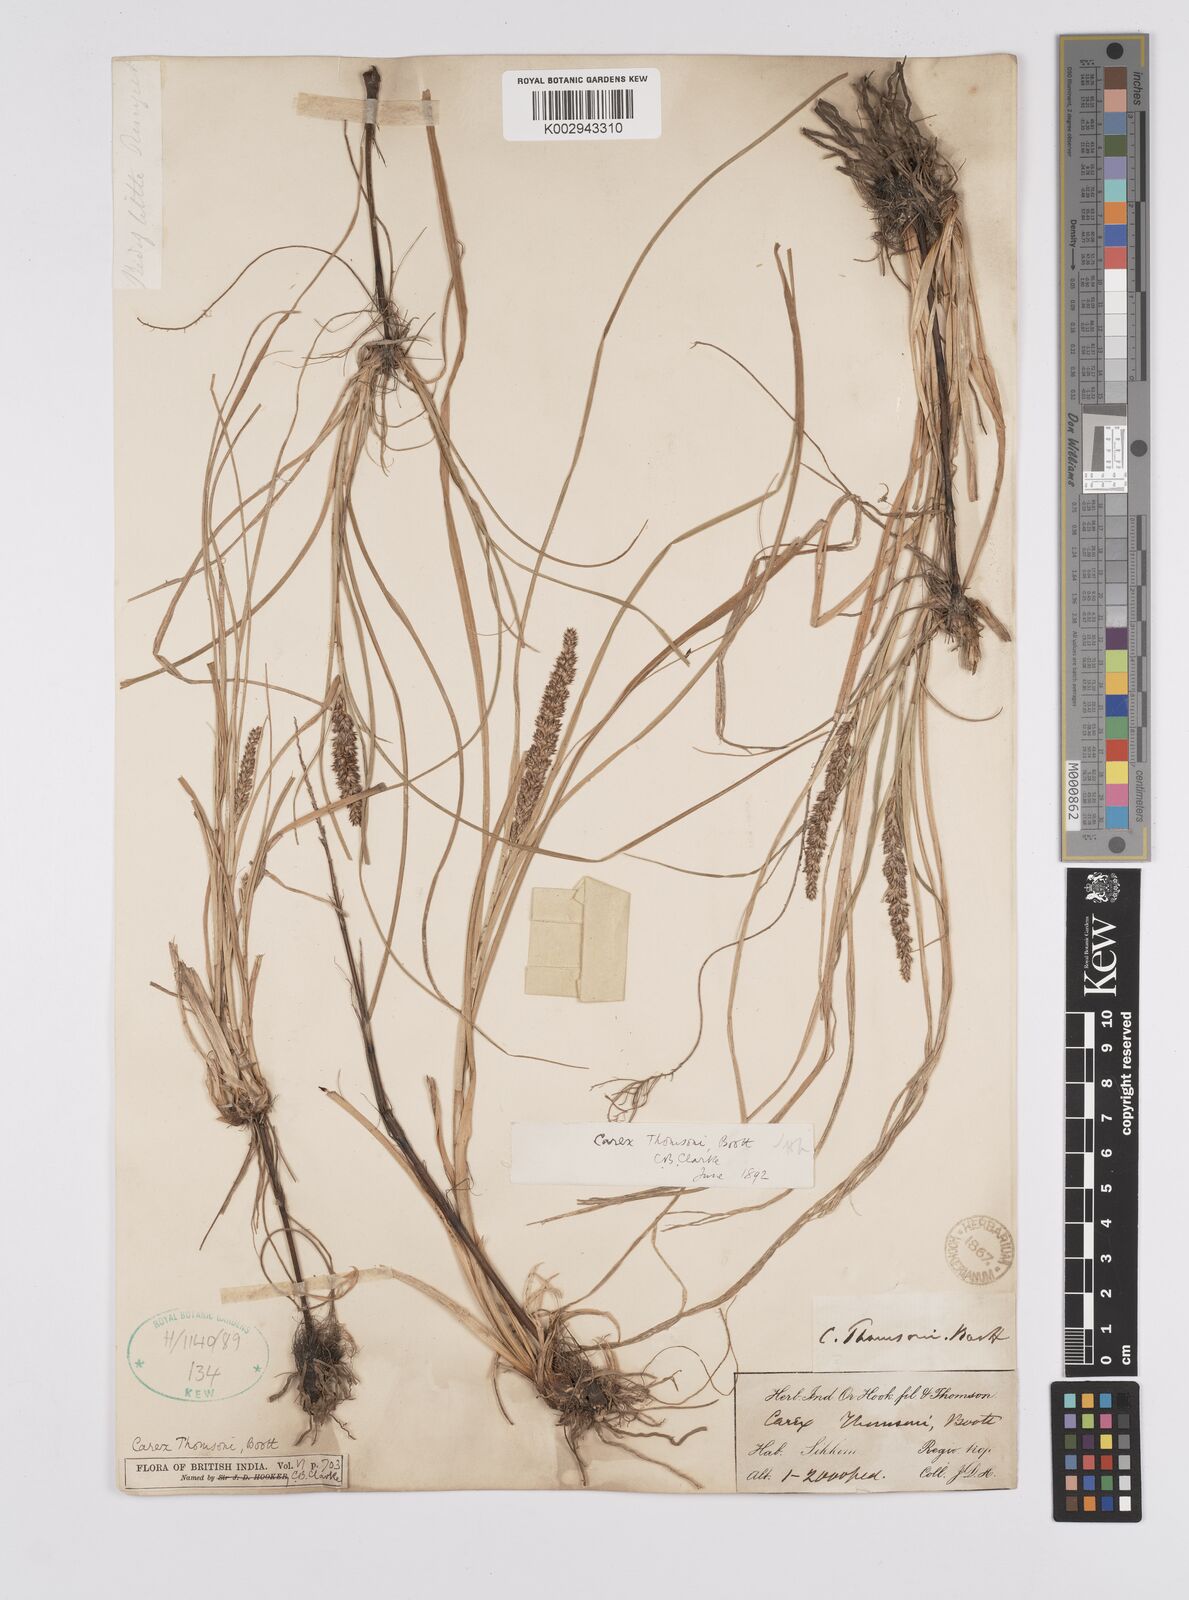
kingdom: Plantae
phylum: Tracheophyta
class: Liliopsida
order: Poales
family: Cyperaceae
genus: Carex
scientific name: Carex thomsonii
